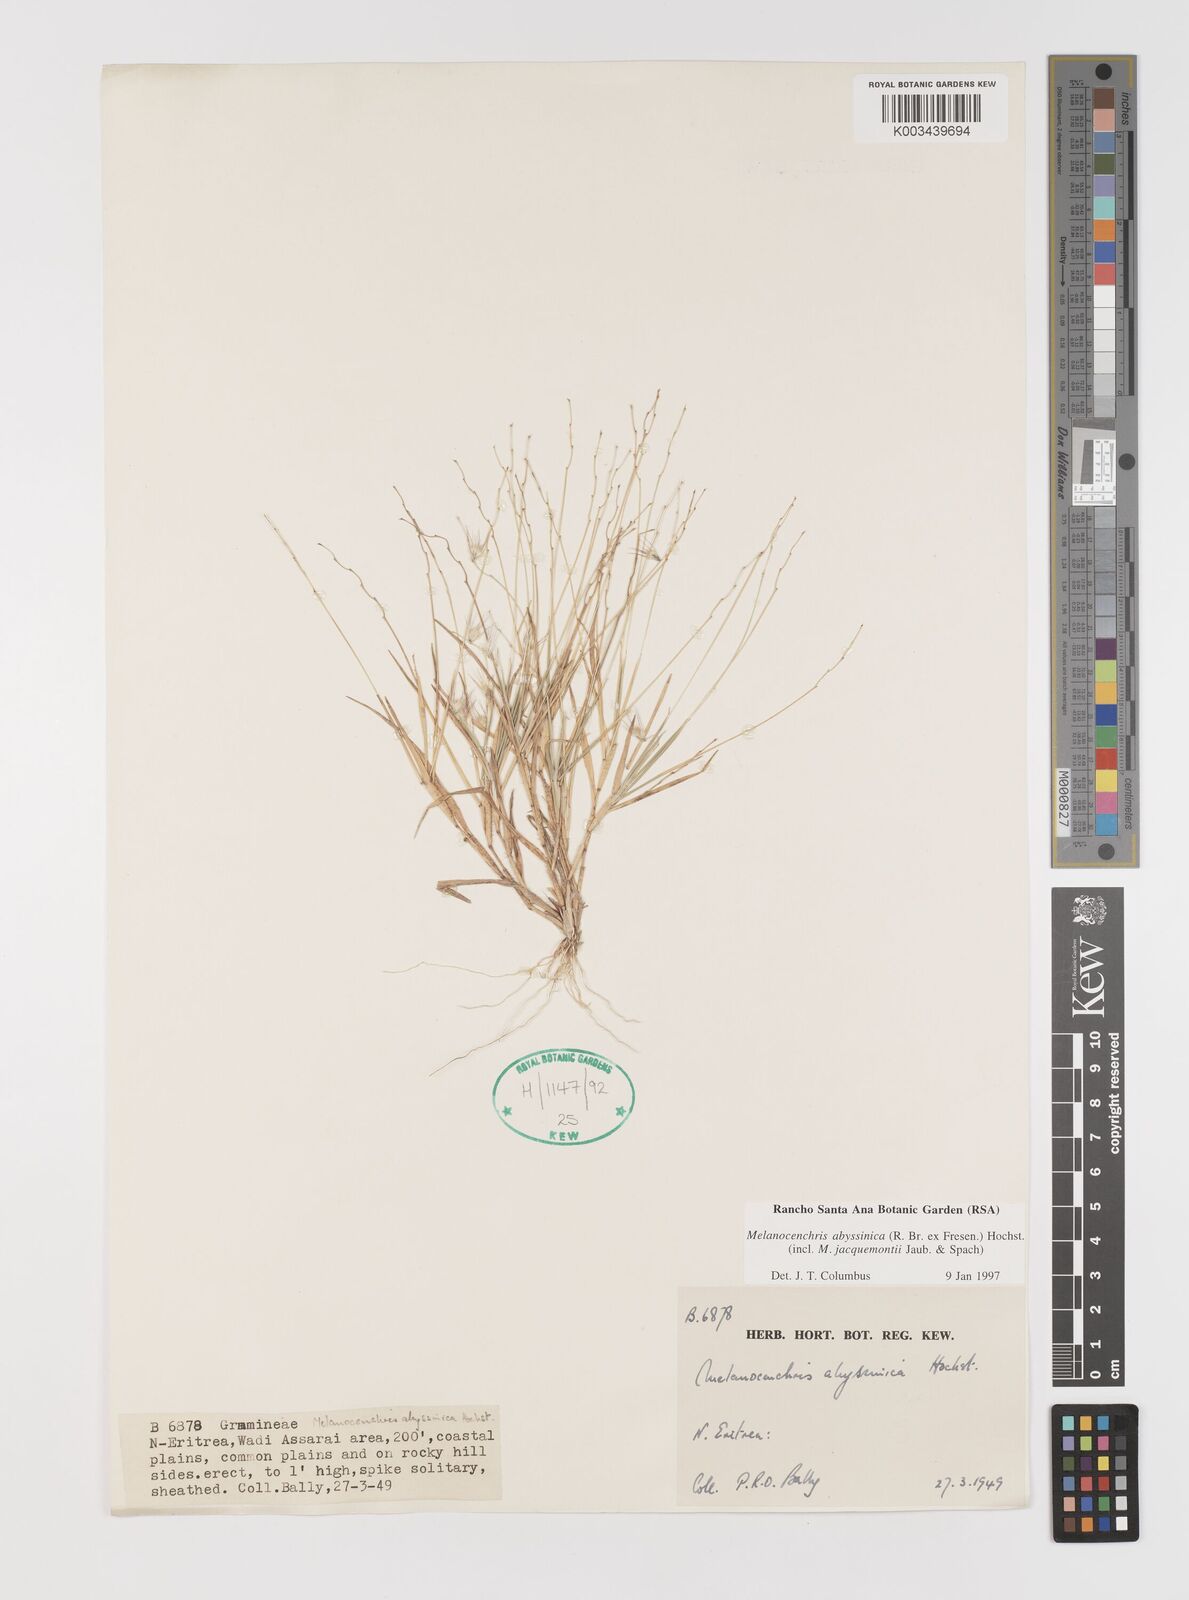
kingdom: Plantae
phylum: Tracheophyta
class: Liliopsida
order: Poales
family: Poaceae
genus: Melanocenchris
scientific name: Melanocenchris abyssinica
